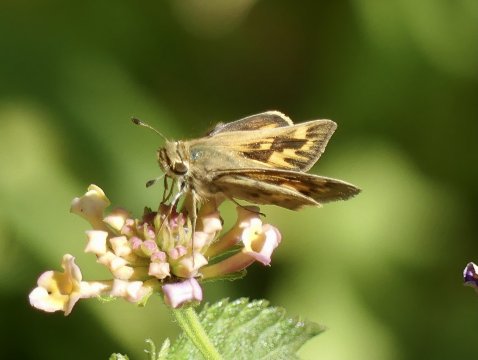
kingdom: Animalia
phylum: Arthropoda
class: Insecta
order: Lepidoptera
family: Hesperiidae
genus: Hylephila
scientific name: Hylephila phyleus
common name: Fiery Skipper
